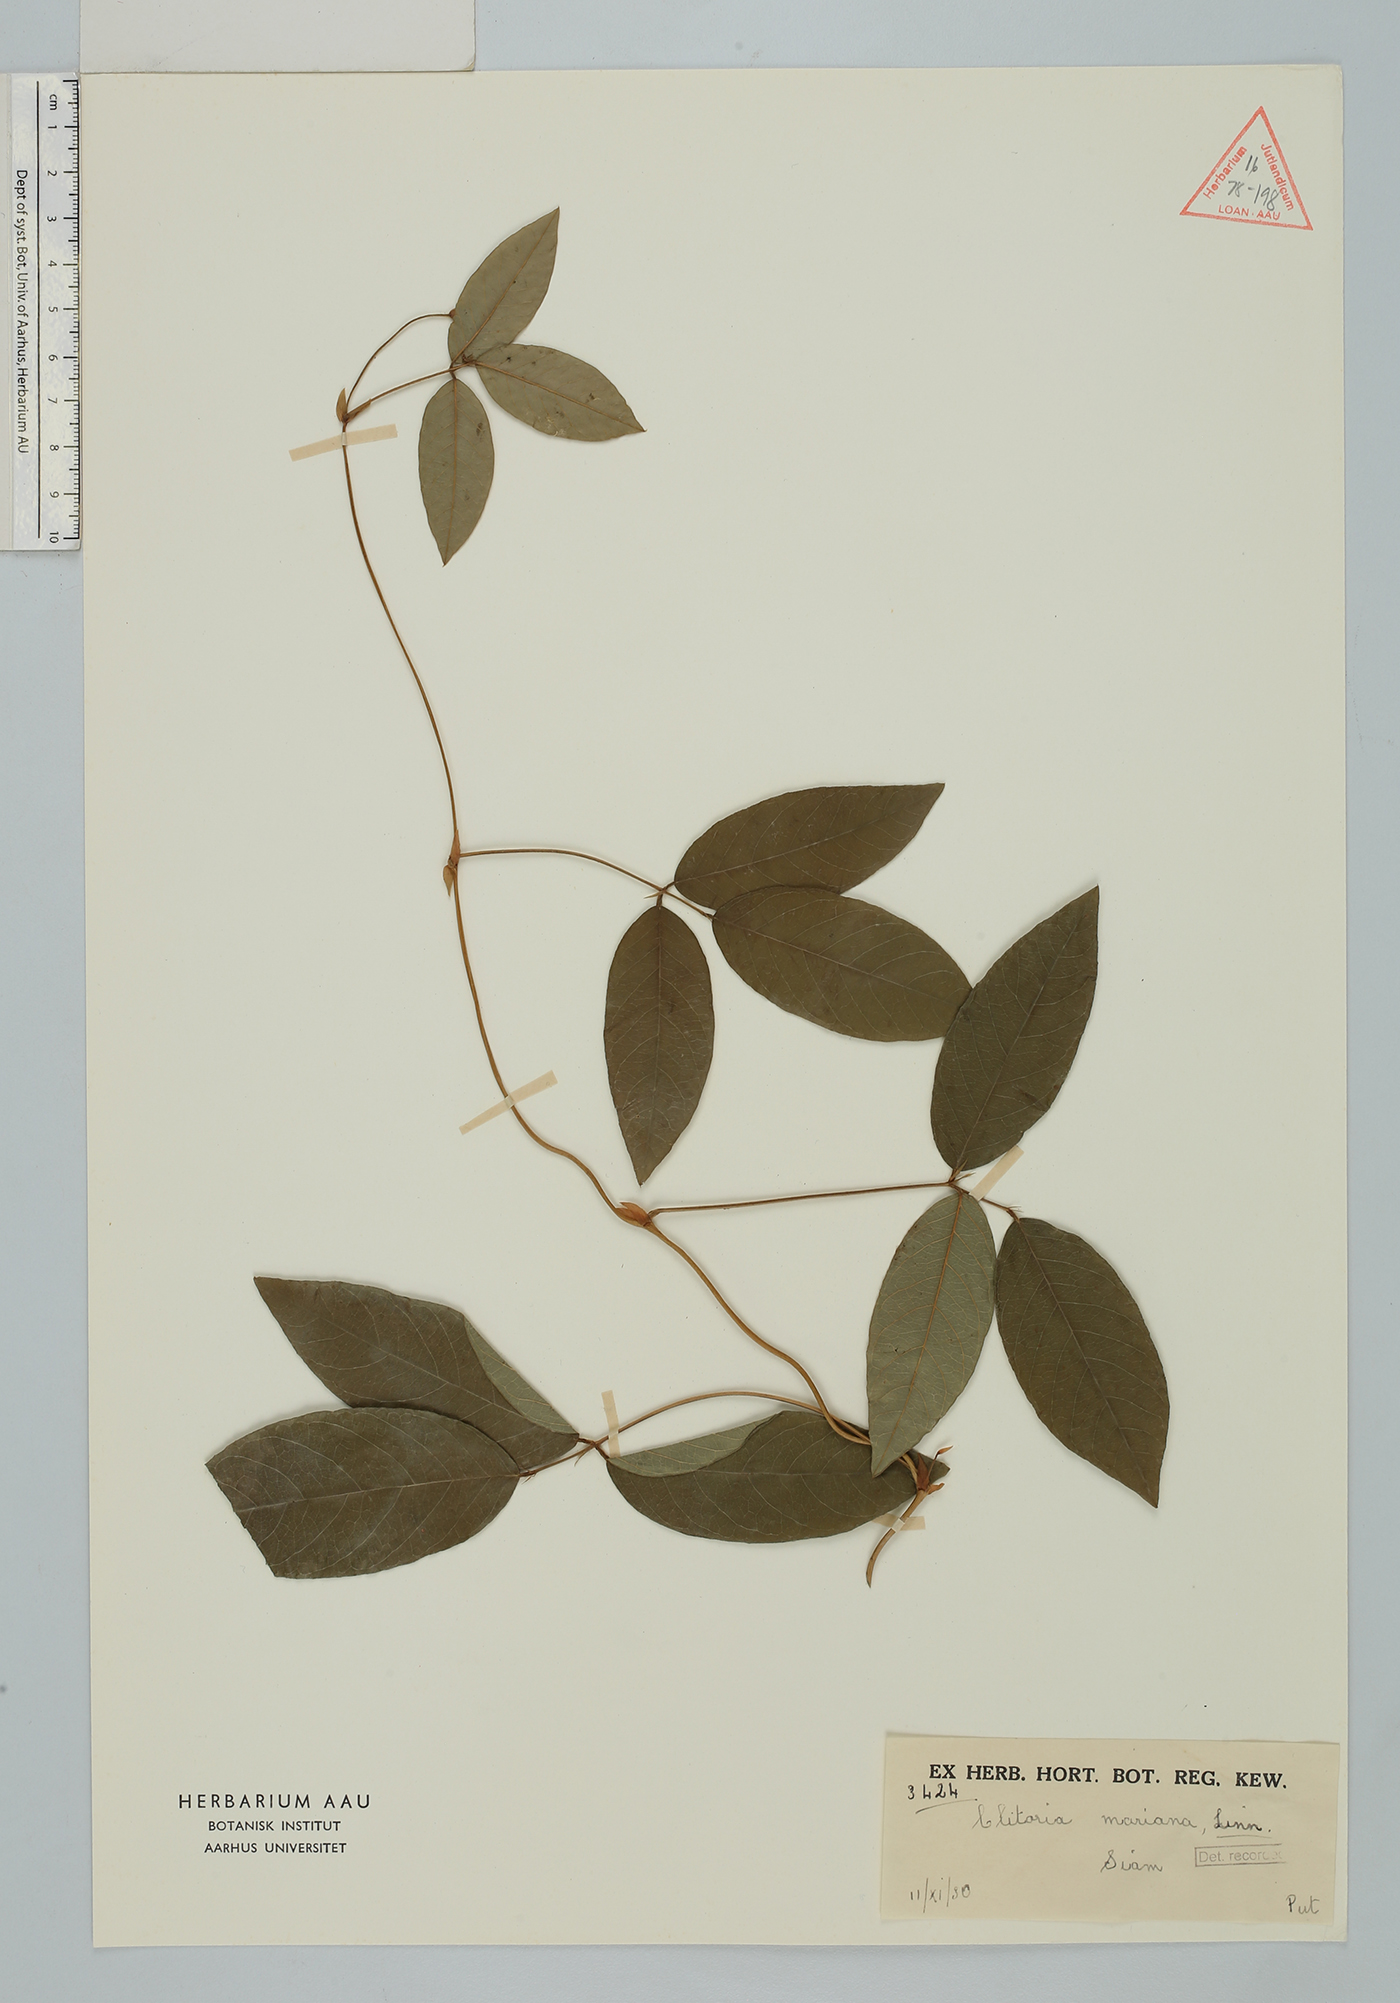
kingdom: Plantae
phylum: Tracheophyta
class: Magnoliopsida
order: Fabales
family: Fabaceae
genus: Clitoria
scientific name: Clitoria mariana
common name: Butterfly-pea
